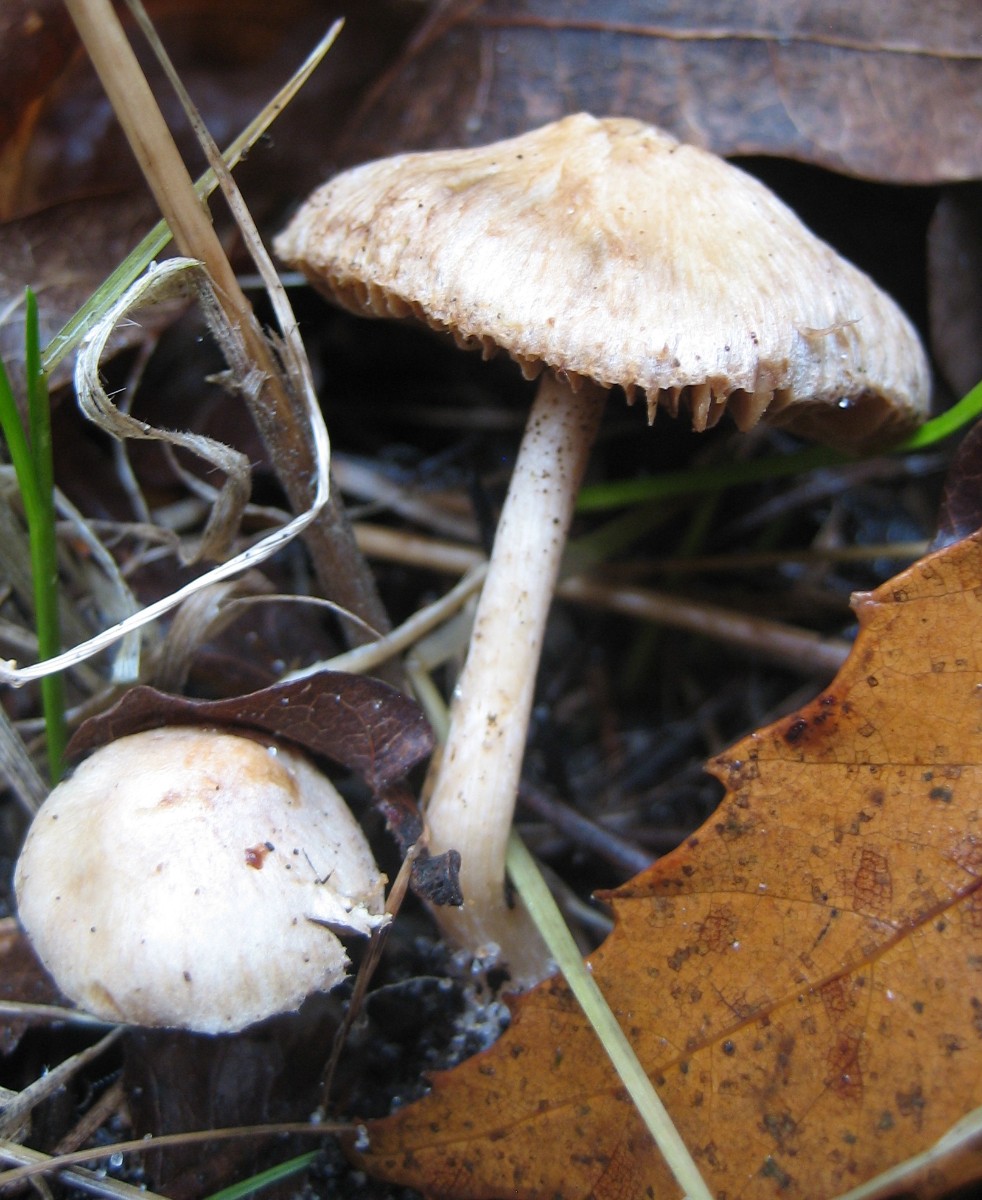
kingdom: Fungi
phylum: Basidiomycota
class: Agaricomycetes
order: Agaricales
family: Inocybaceae
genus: Inocybe
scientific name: Inocybe
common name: trævlhat
